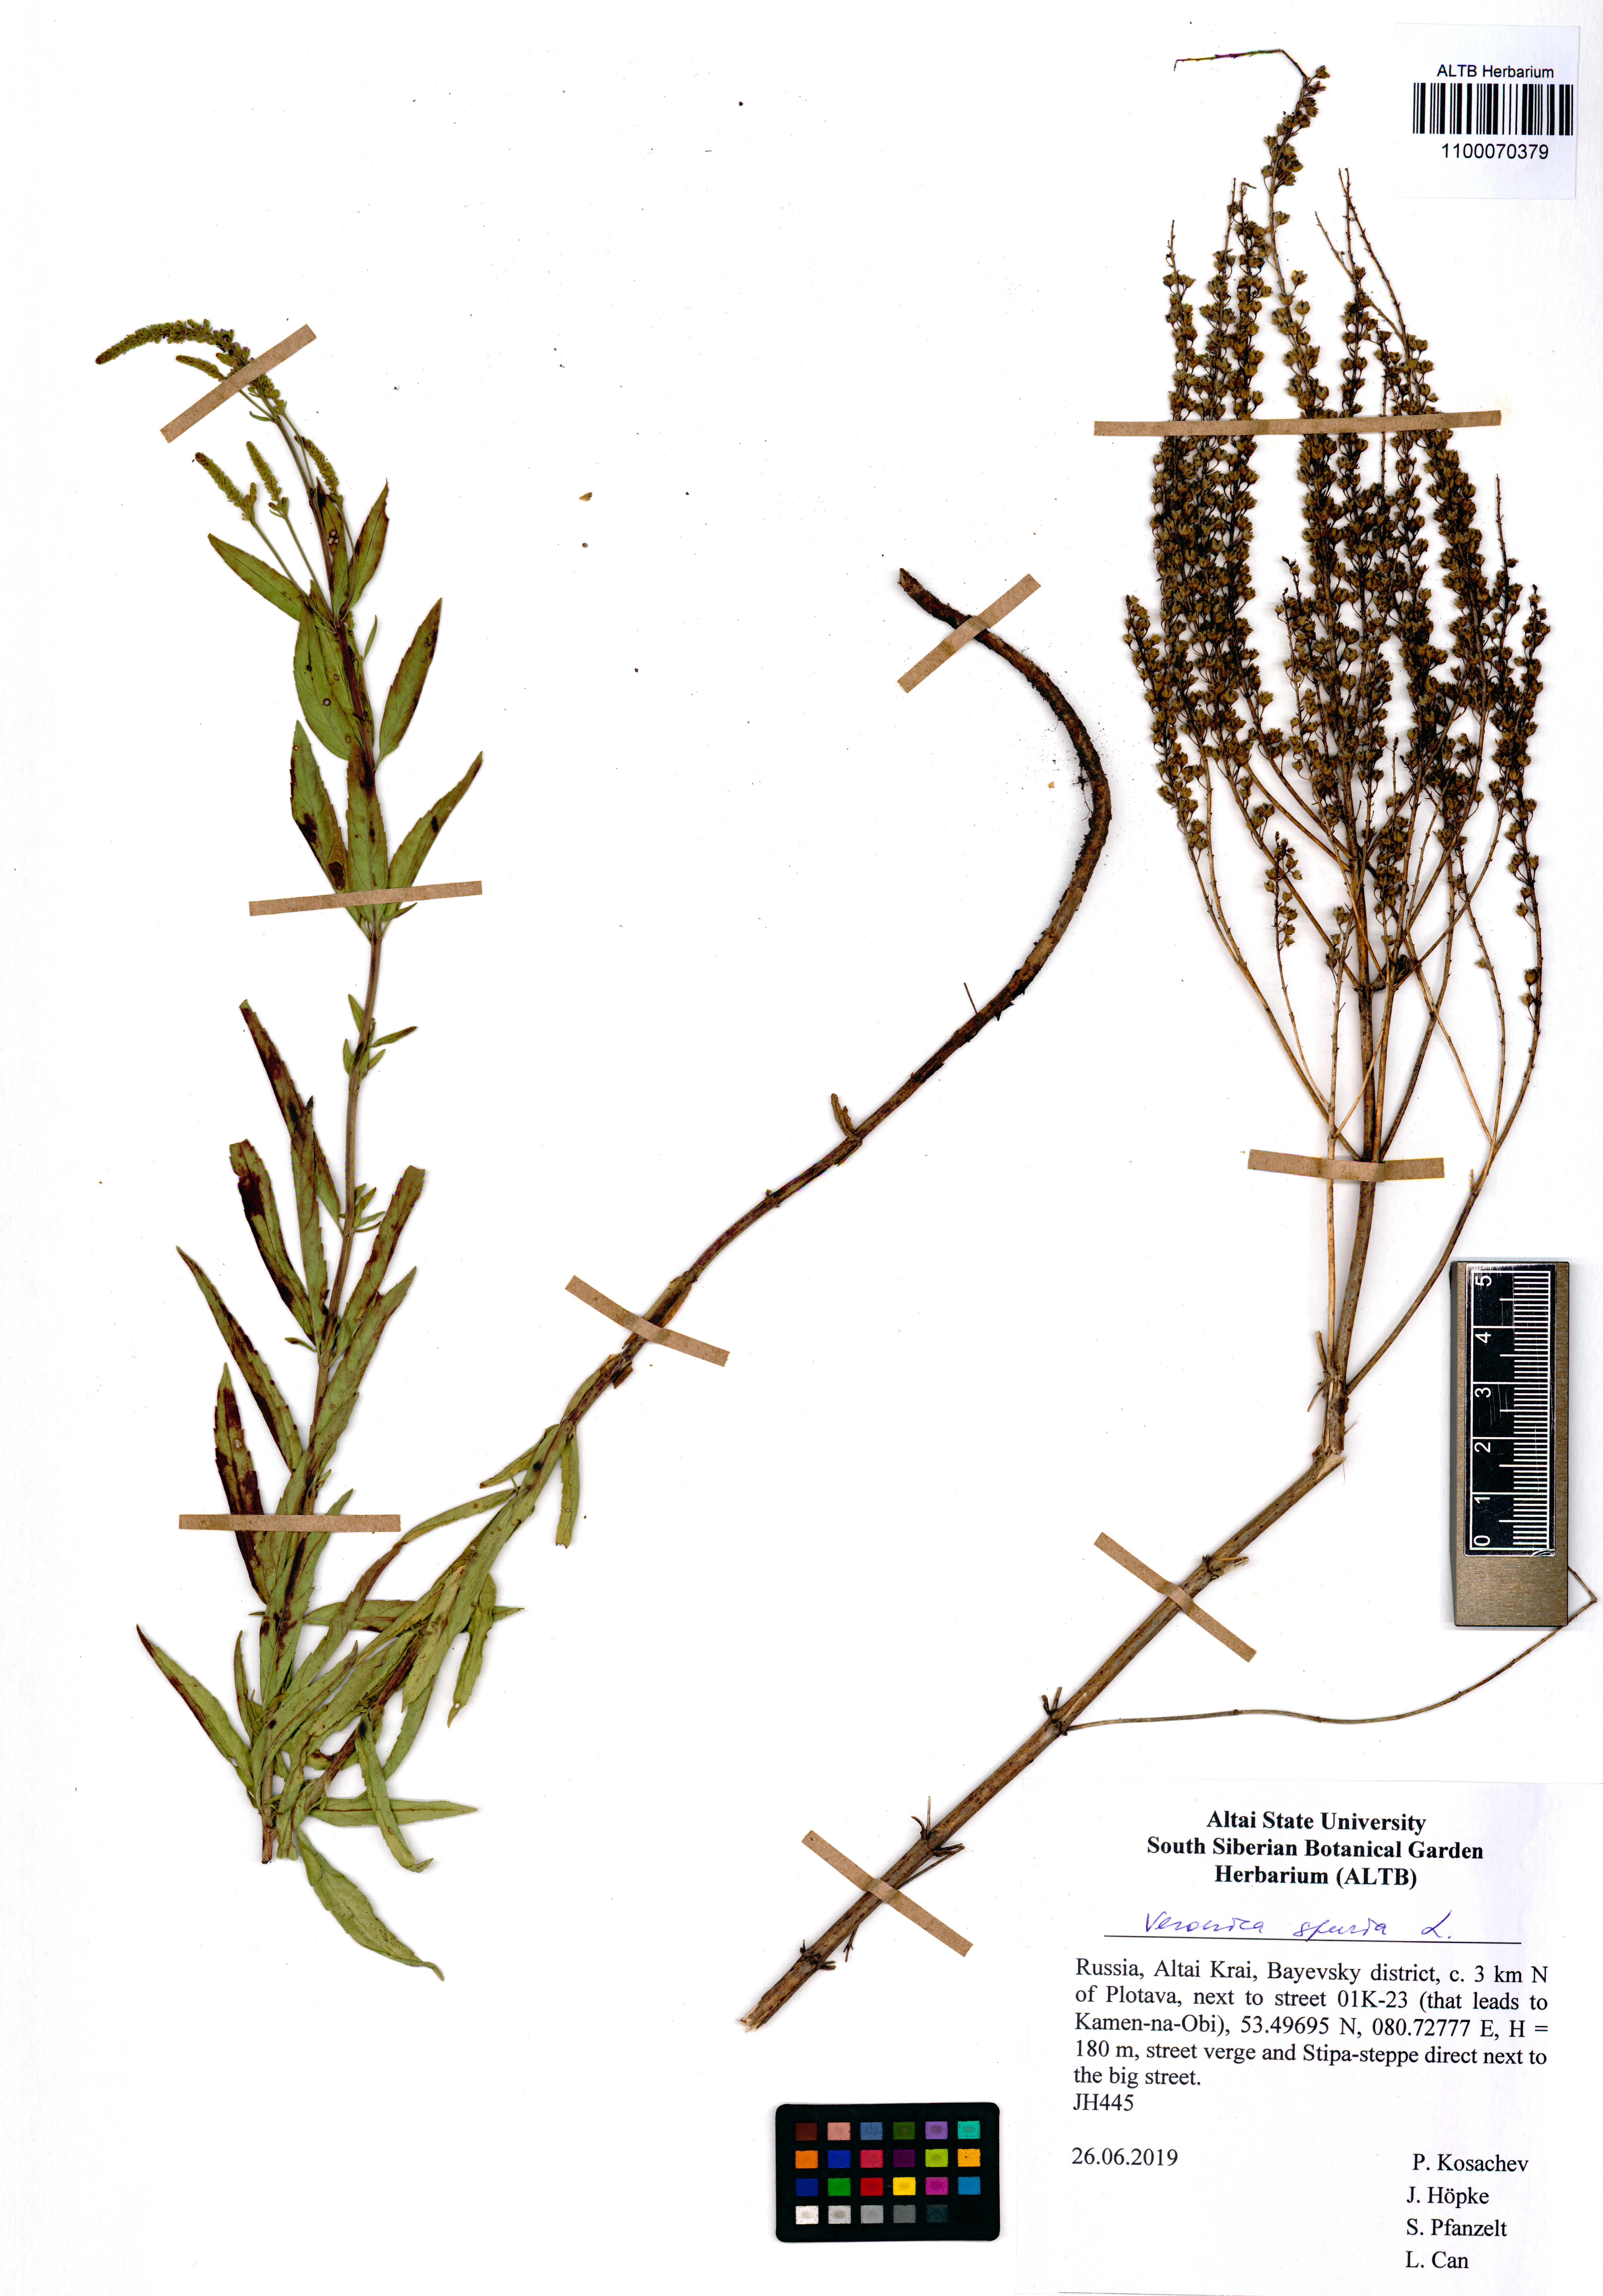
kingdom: Plantae
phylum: Tracheophyta
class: Magnoliopsida
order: Lamiales
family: Plantaginaceae
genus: Veronica
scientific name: Veronica spuria
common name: Bastard speedwell
